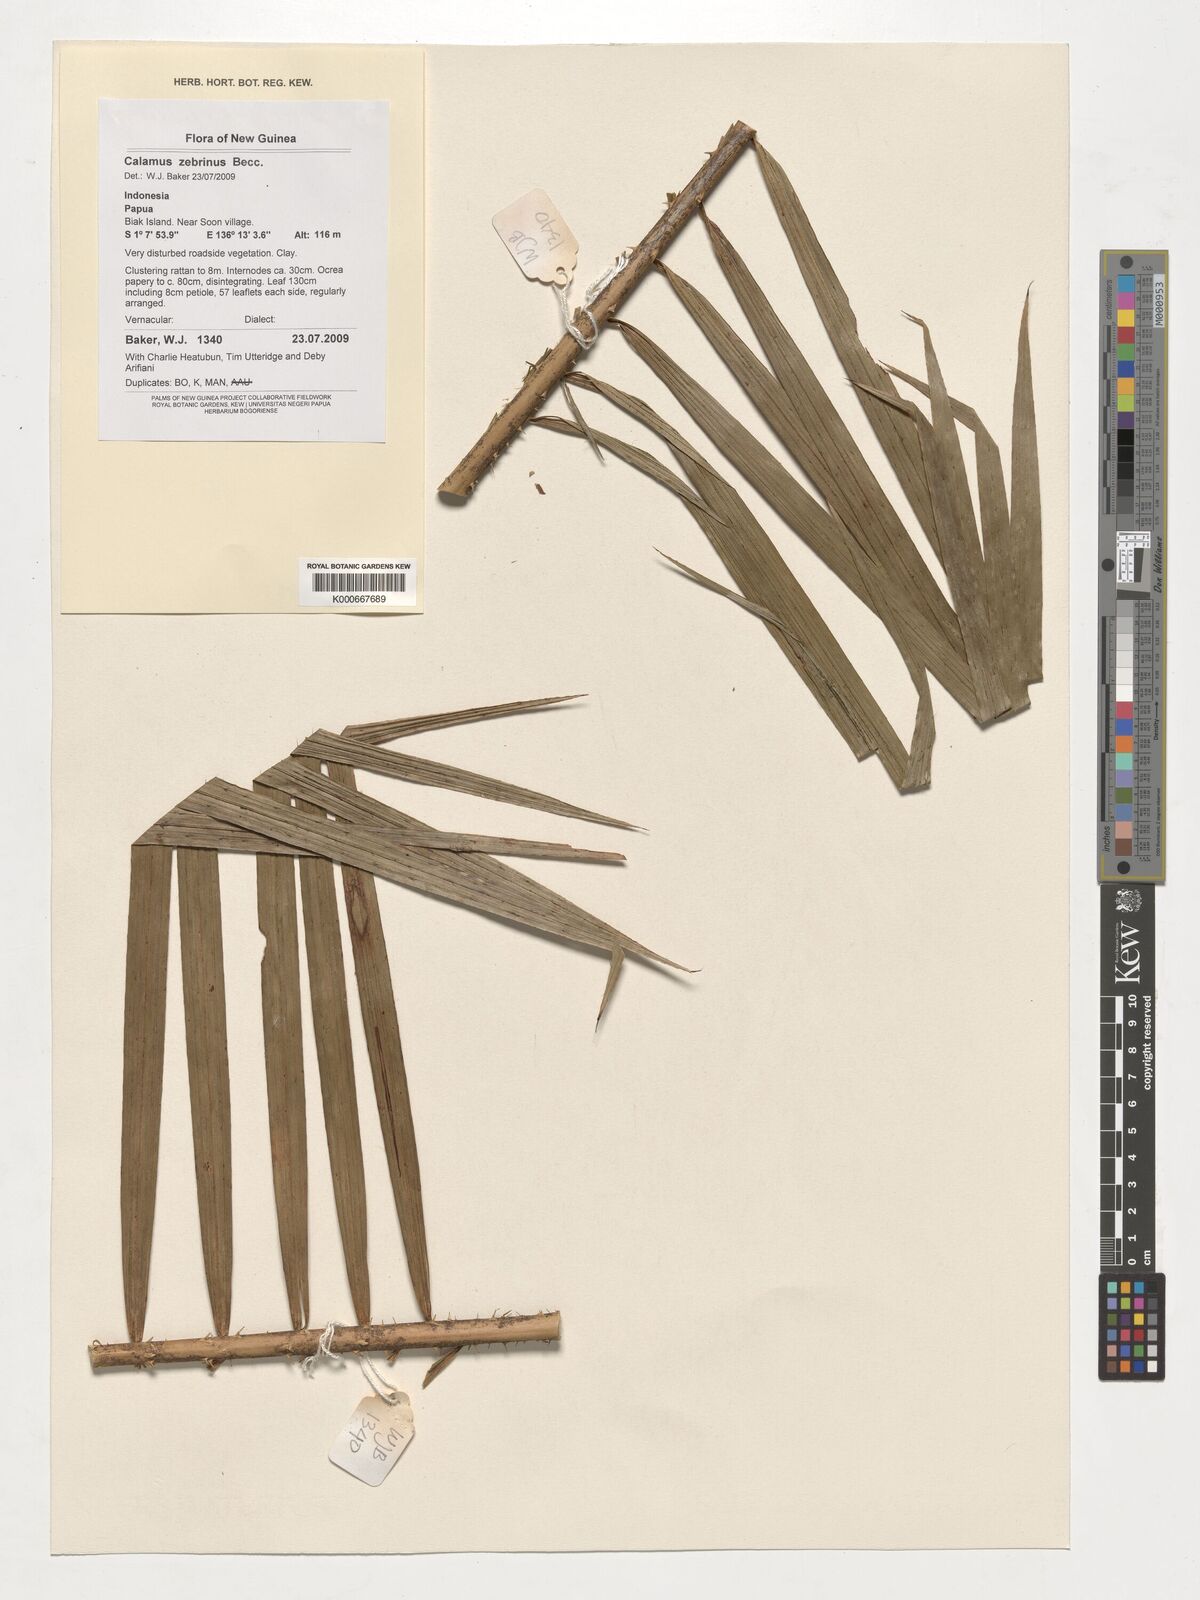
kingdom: Plantae
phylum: Tracheophyta
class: Liliopsida
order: Arecales
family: Arecaceae
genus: Calamus
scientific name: Calamus zebrinus
